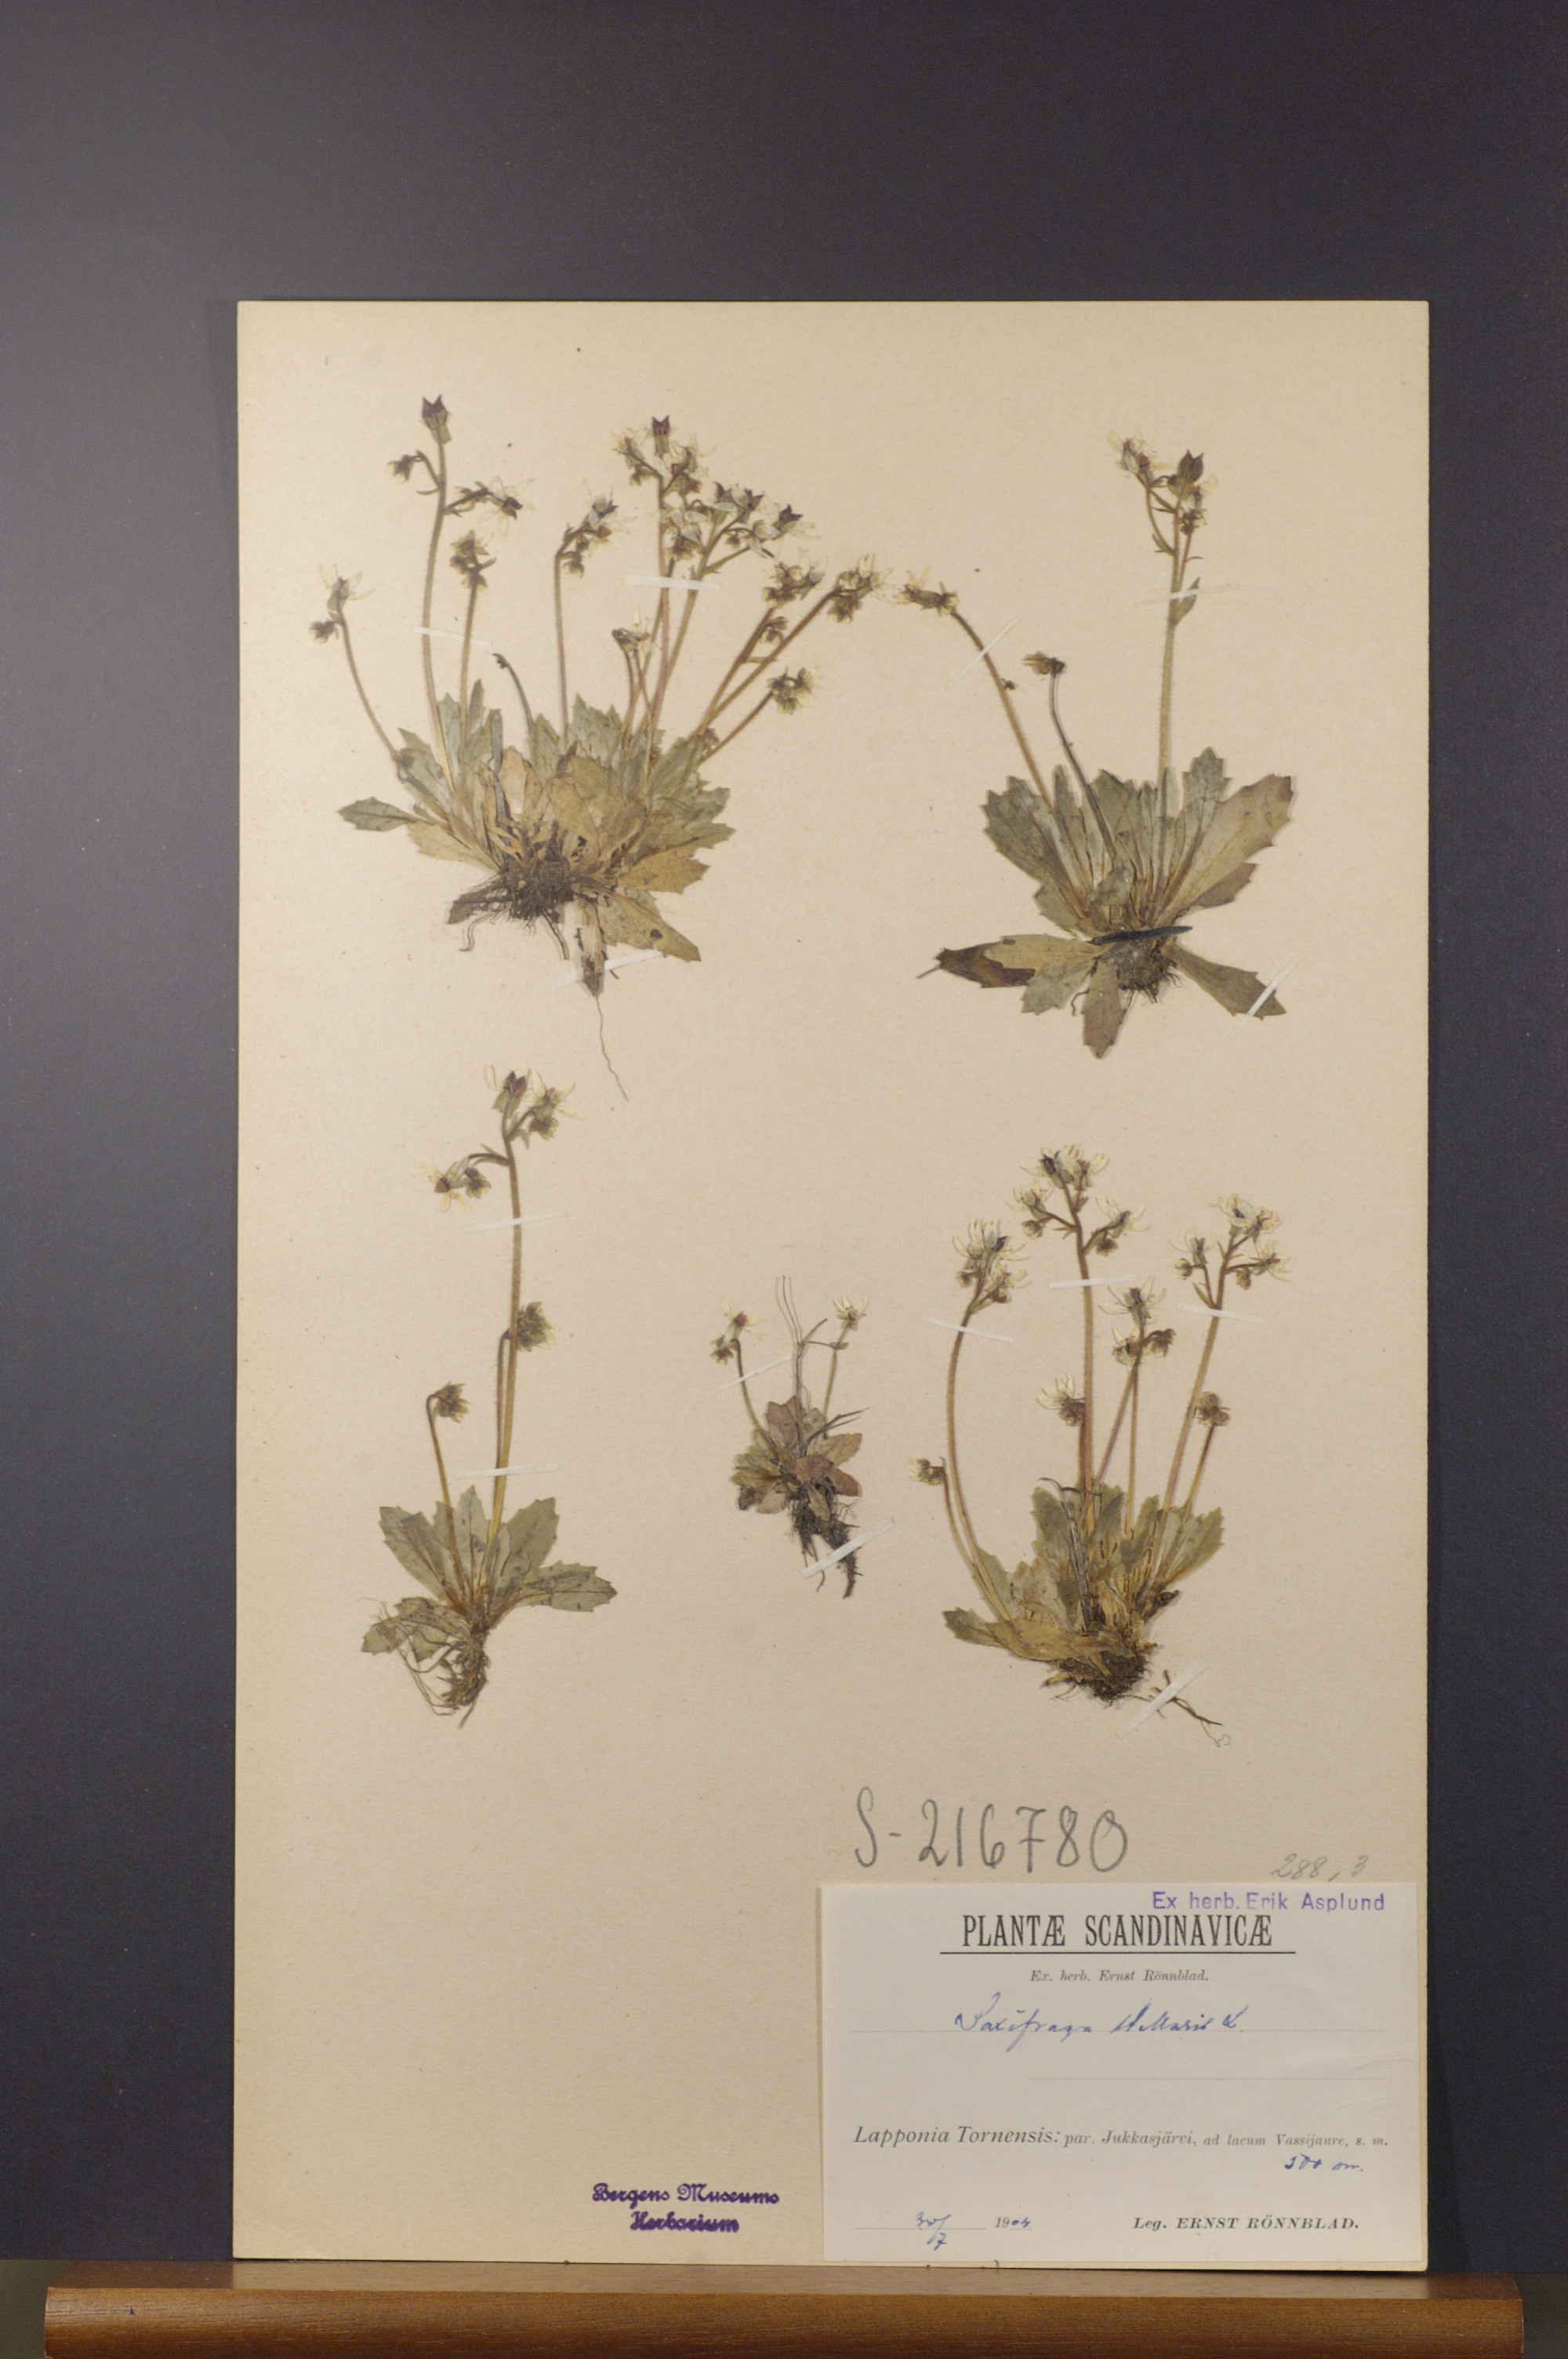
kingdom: Plantae
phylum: Tracheophyta
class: Magnoliopsida
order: Saxifragales
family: Saxifragaceae
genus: Micranthes
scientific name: Micranthes stellaris
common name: Starry saxifrage
